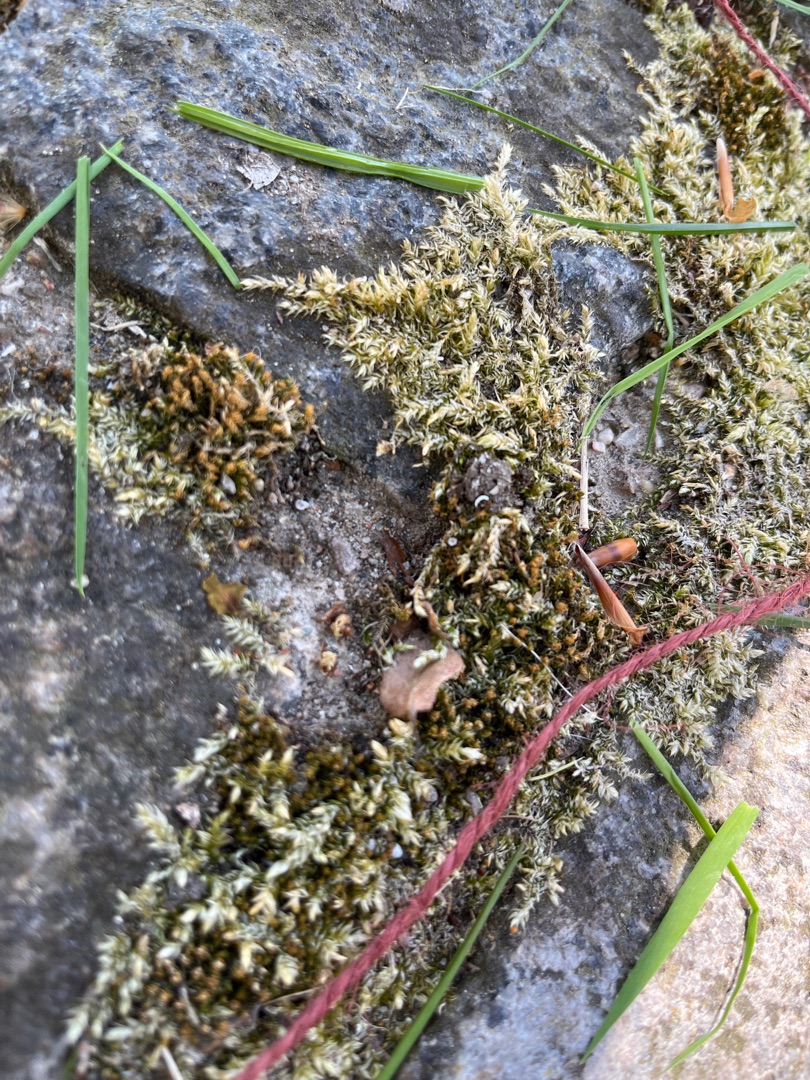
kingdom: Plantae
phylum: Bryophyta
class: Bryopsida
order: Hypnales
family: Brachytheciaceae
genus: Brachythecium
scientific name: Brachythecium rutabulum
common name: Almindelig kortkapsel
